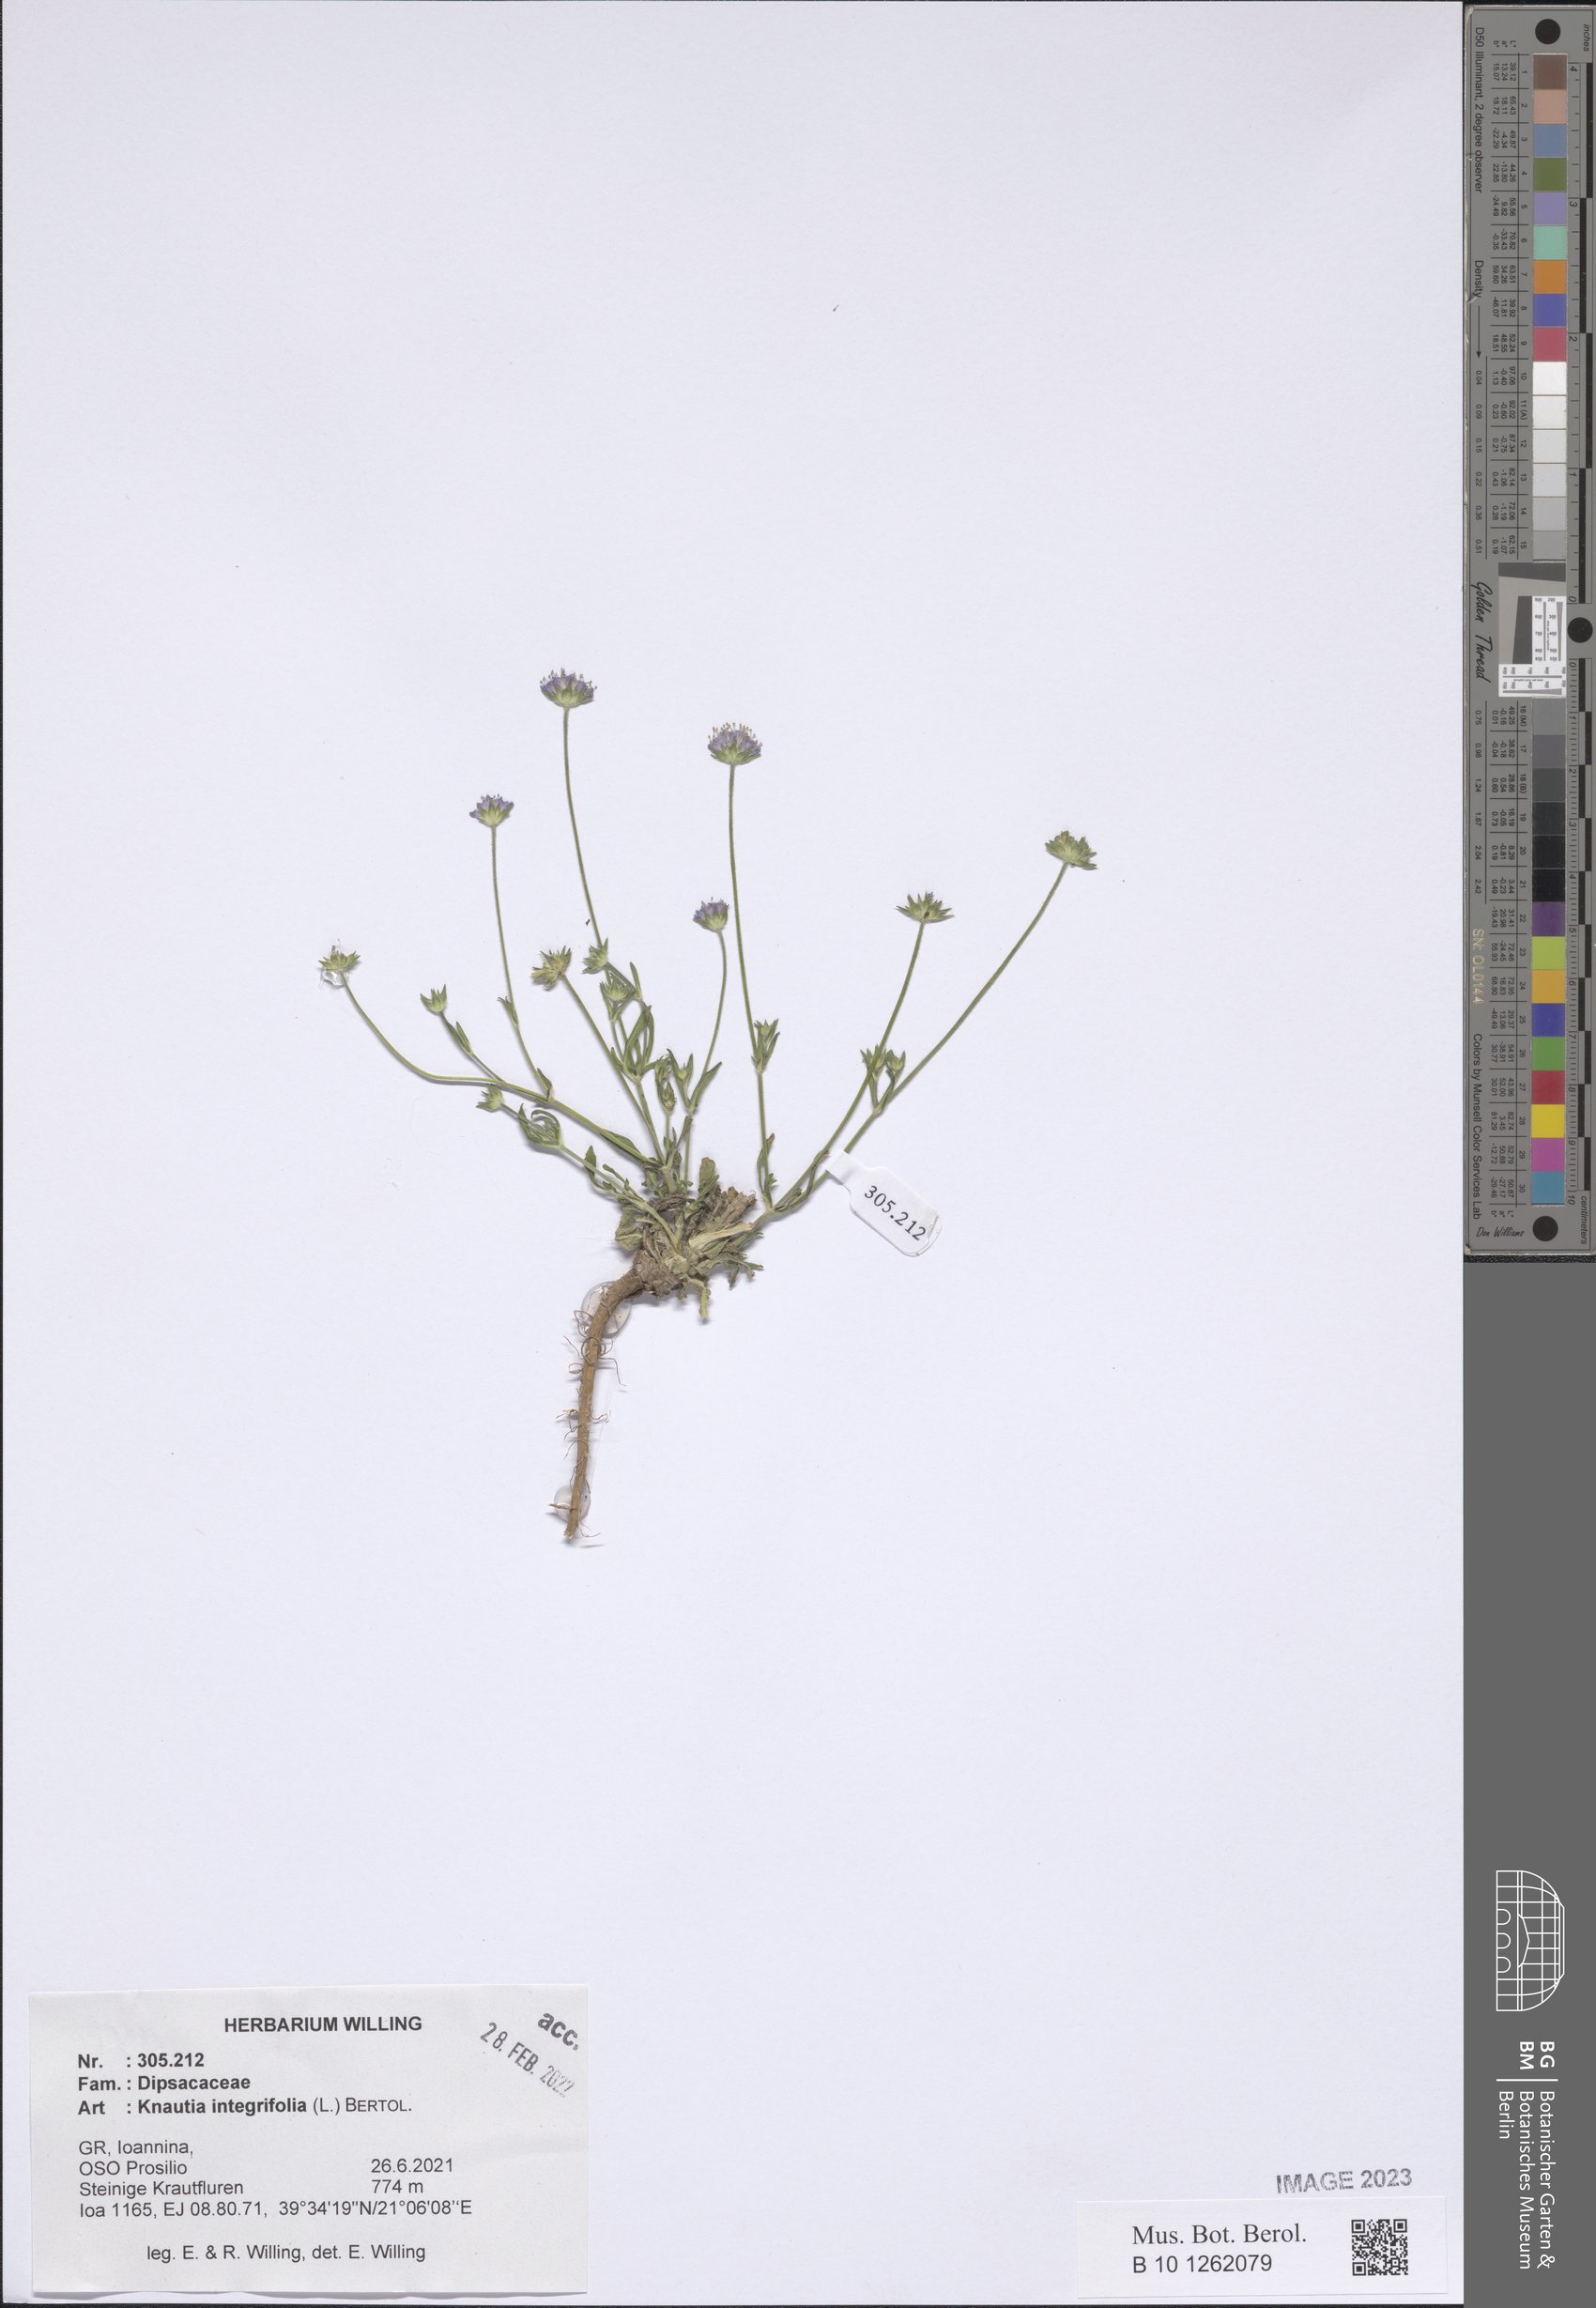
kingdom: Plantae
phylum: Tracheophyta
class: Magnoliopsida
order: Dipsacales
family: Caprifoliaceae
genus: Knautia
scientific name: Knautia integrifolia
